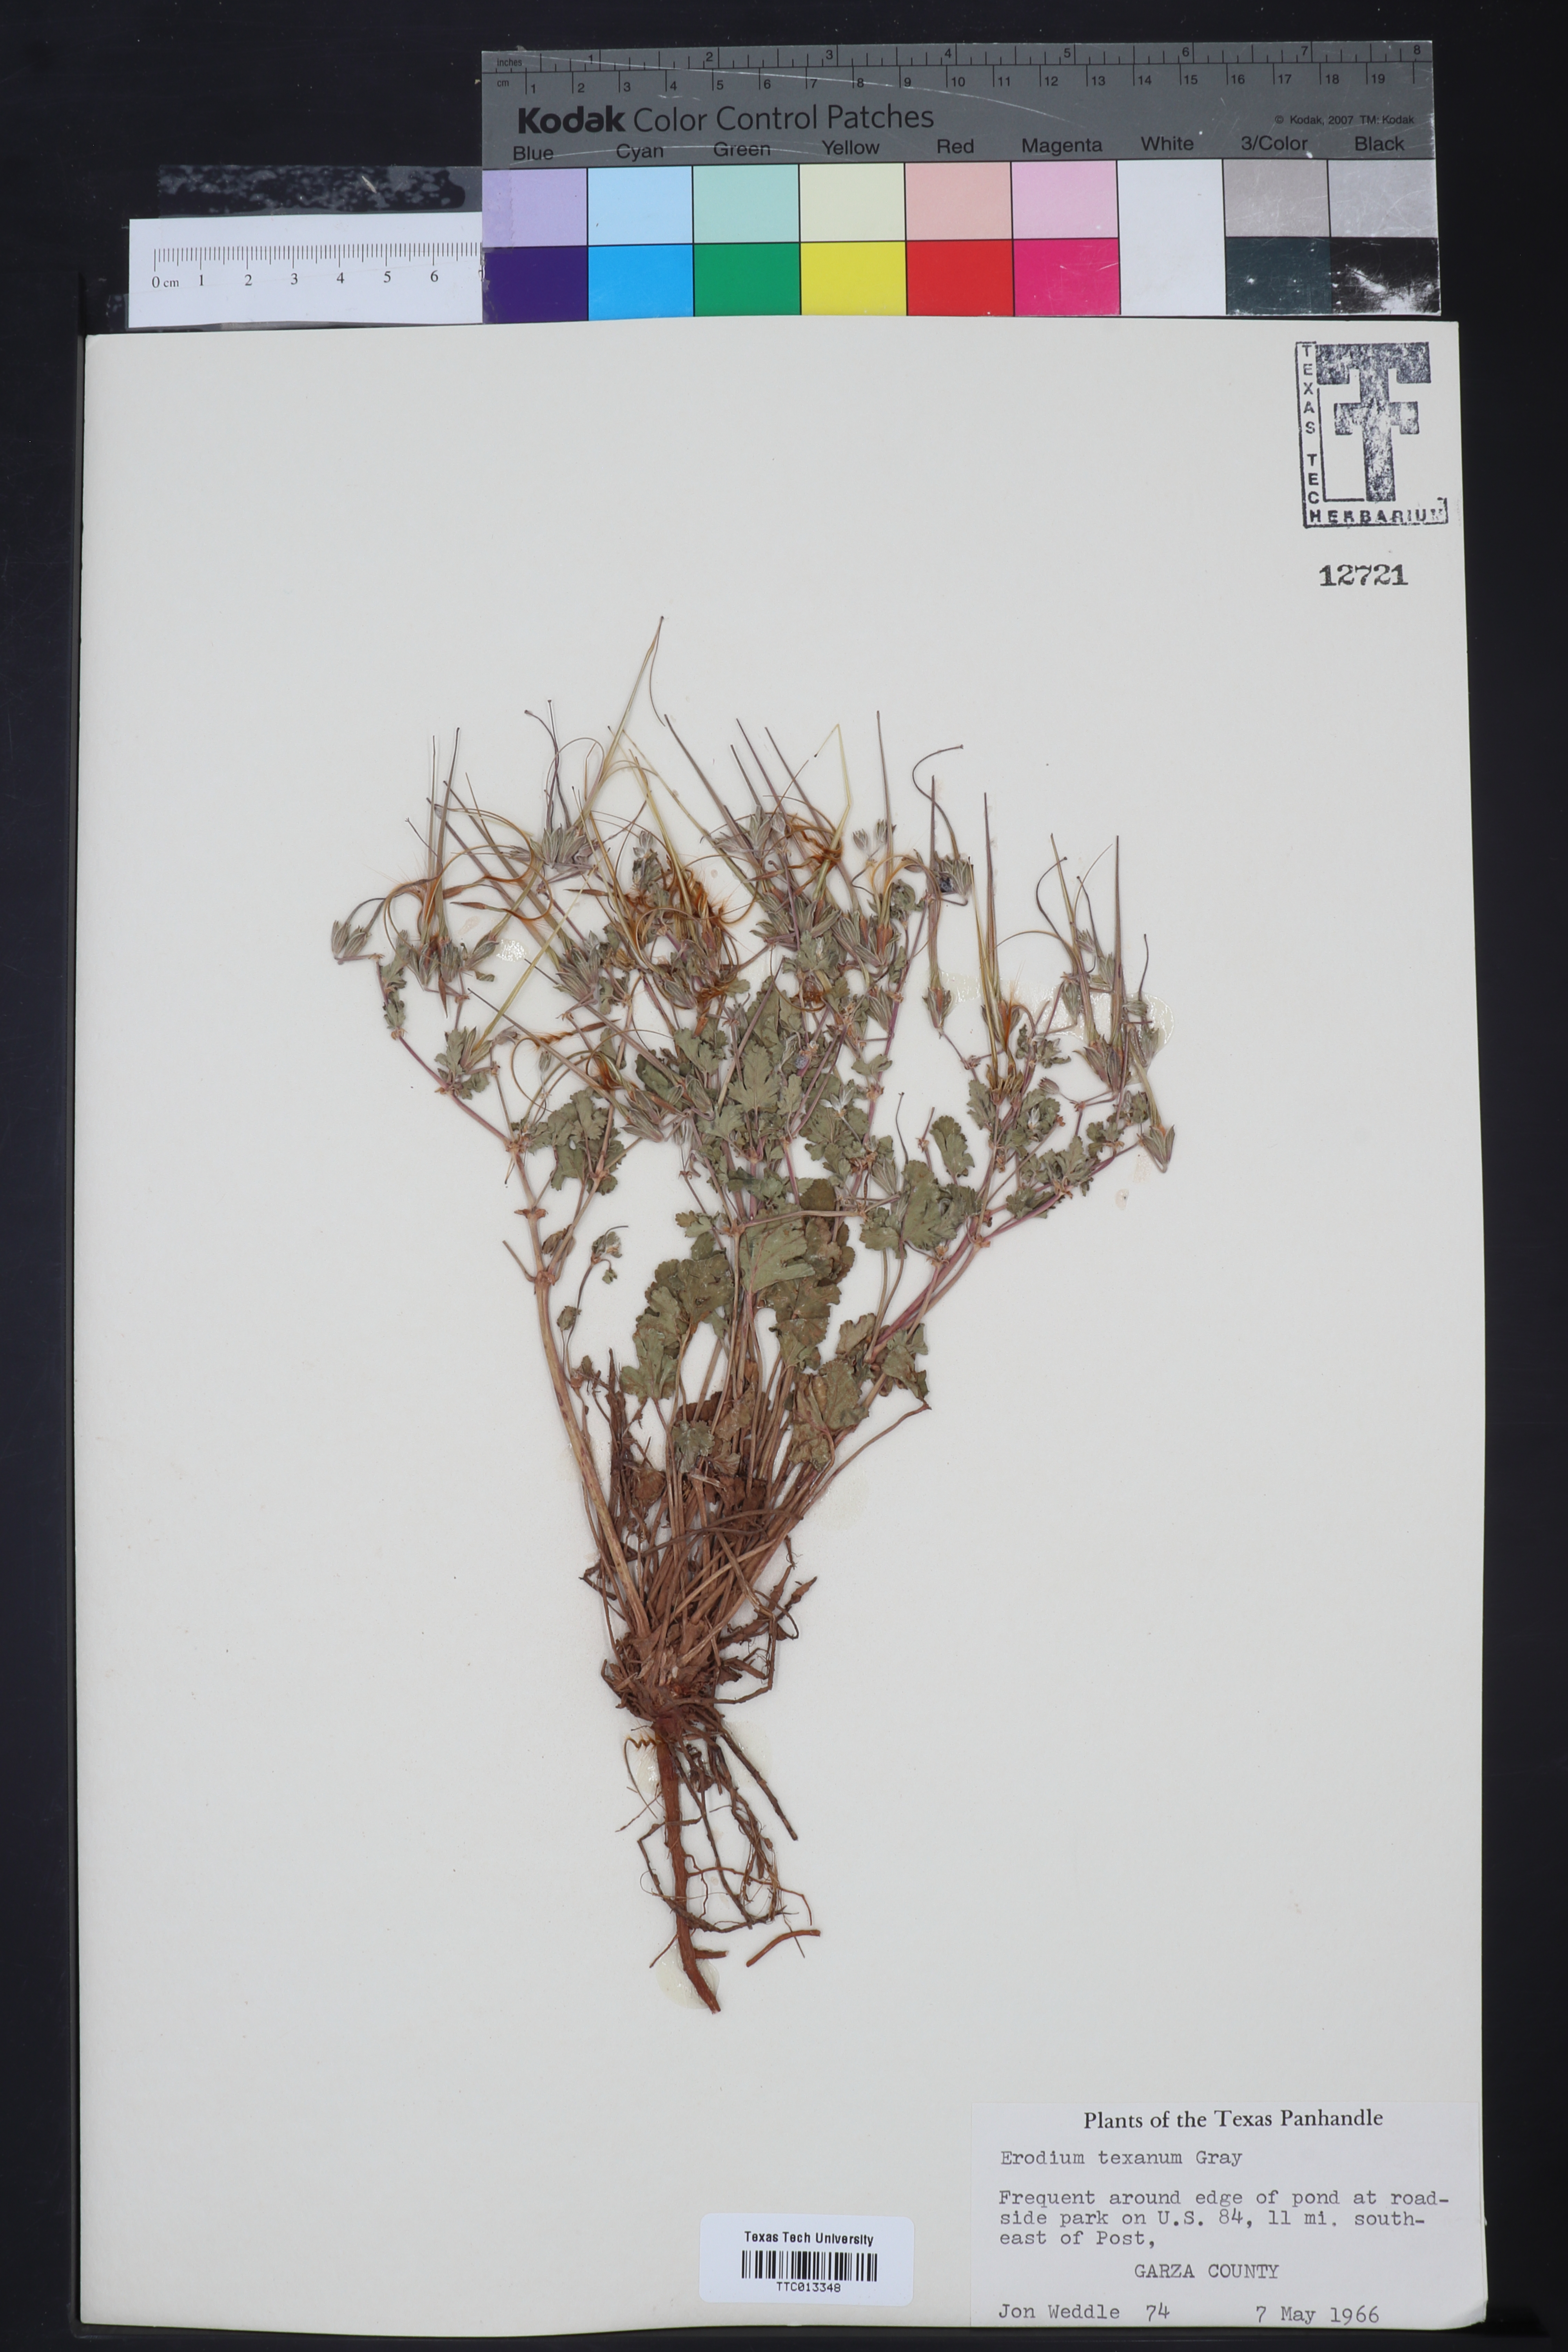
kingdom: Plantae
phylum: Tracheophyta
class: Magnoliopsida
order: Geraniales
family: Geraniaceae
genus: Erodium
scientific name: Erodium texanum
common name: Texas stork's-bill
